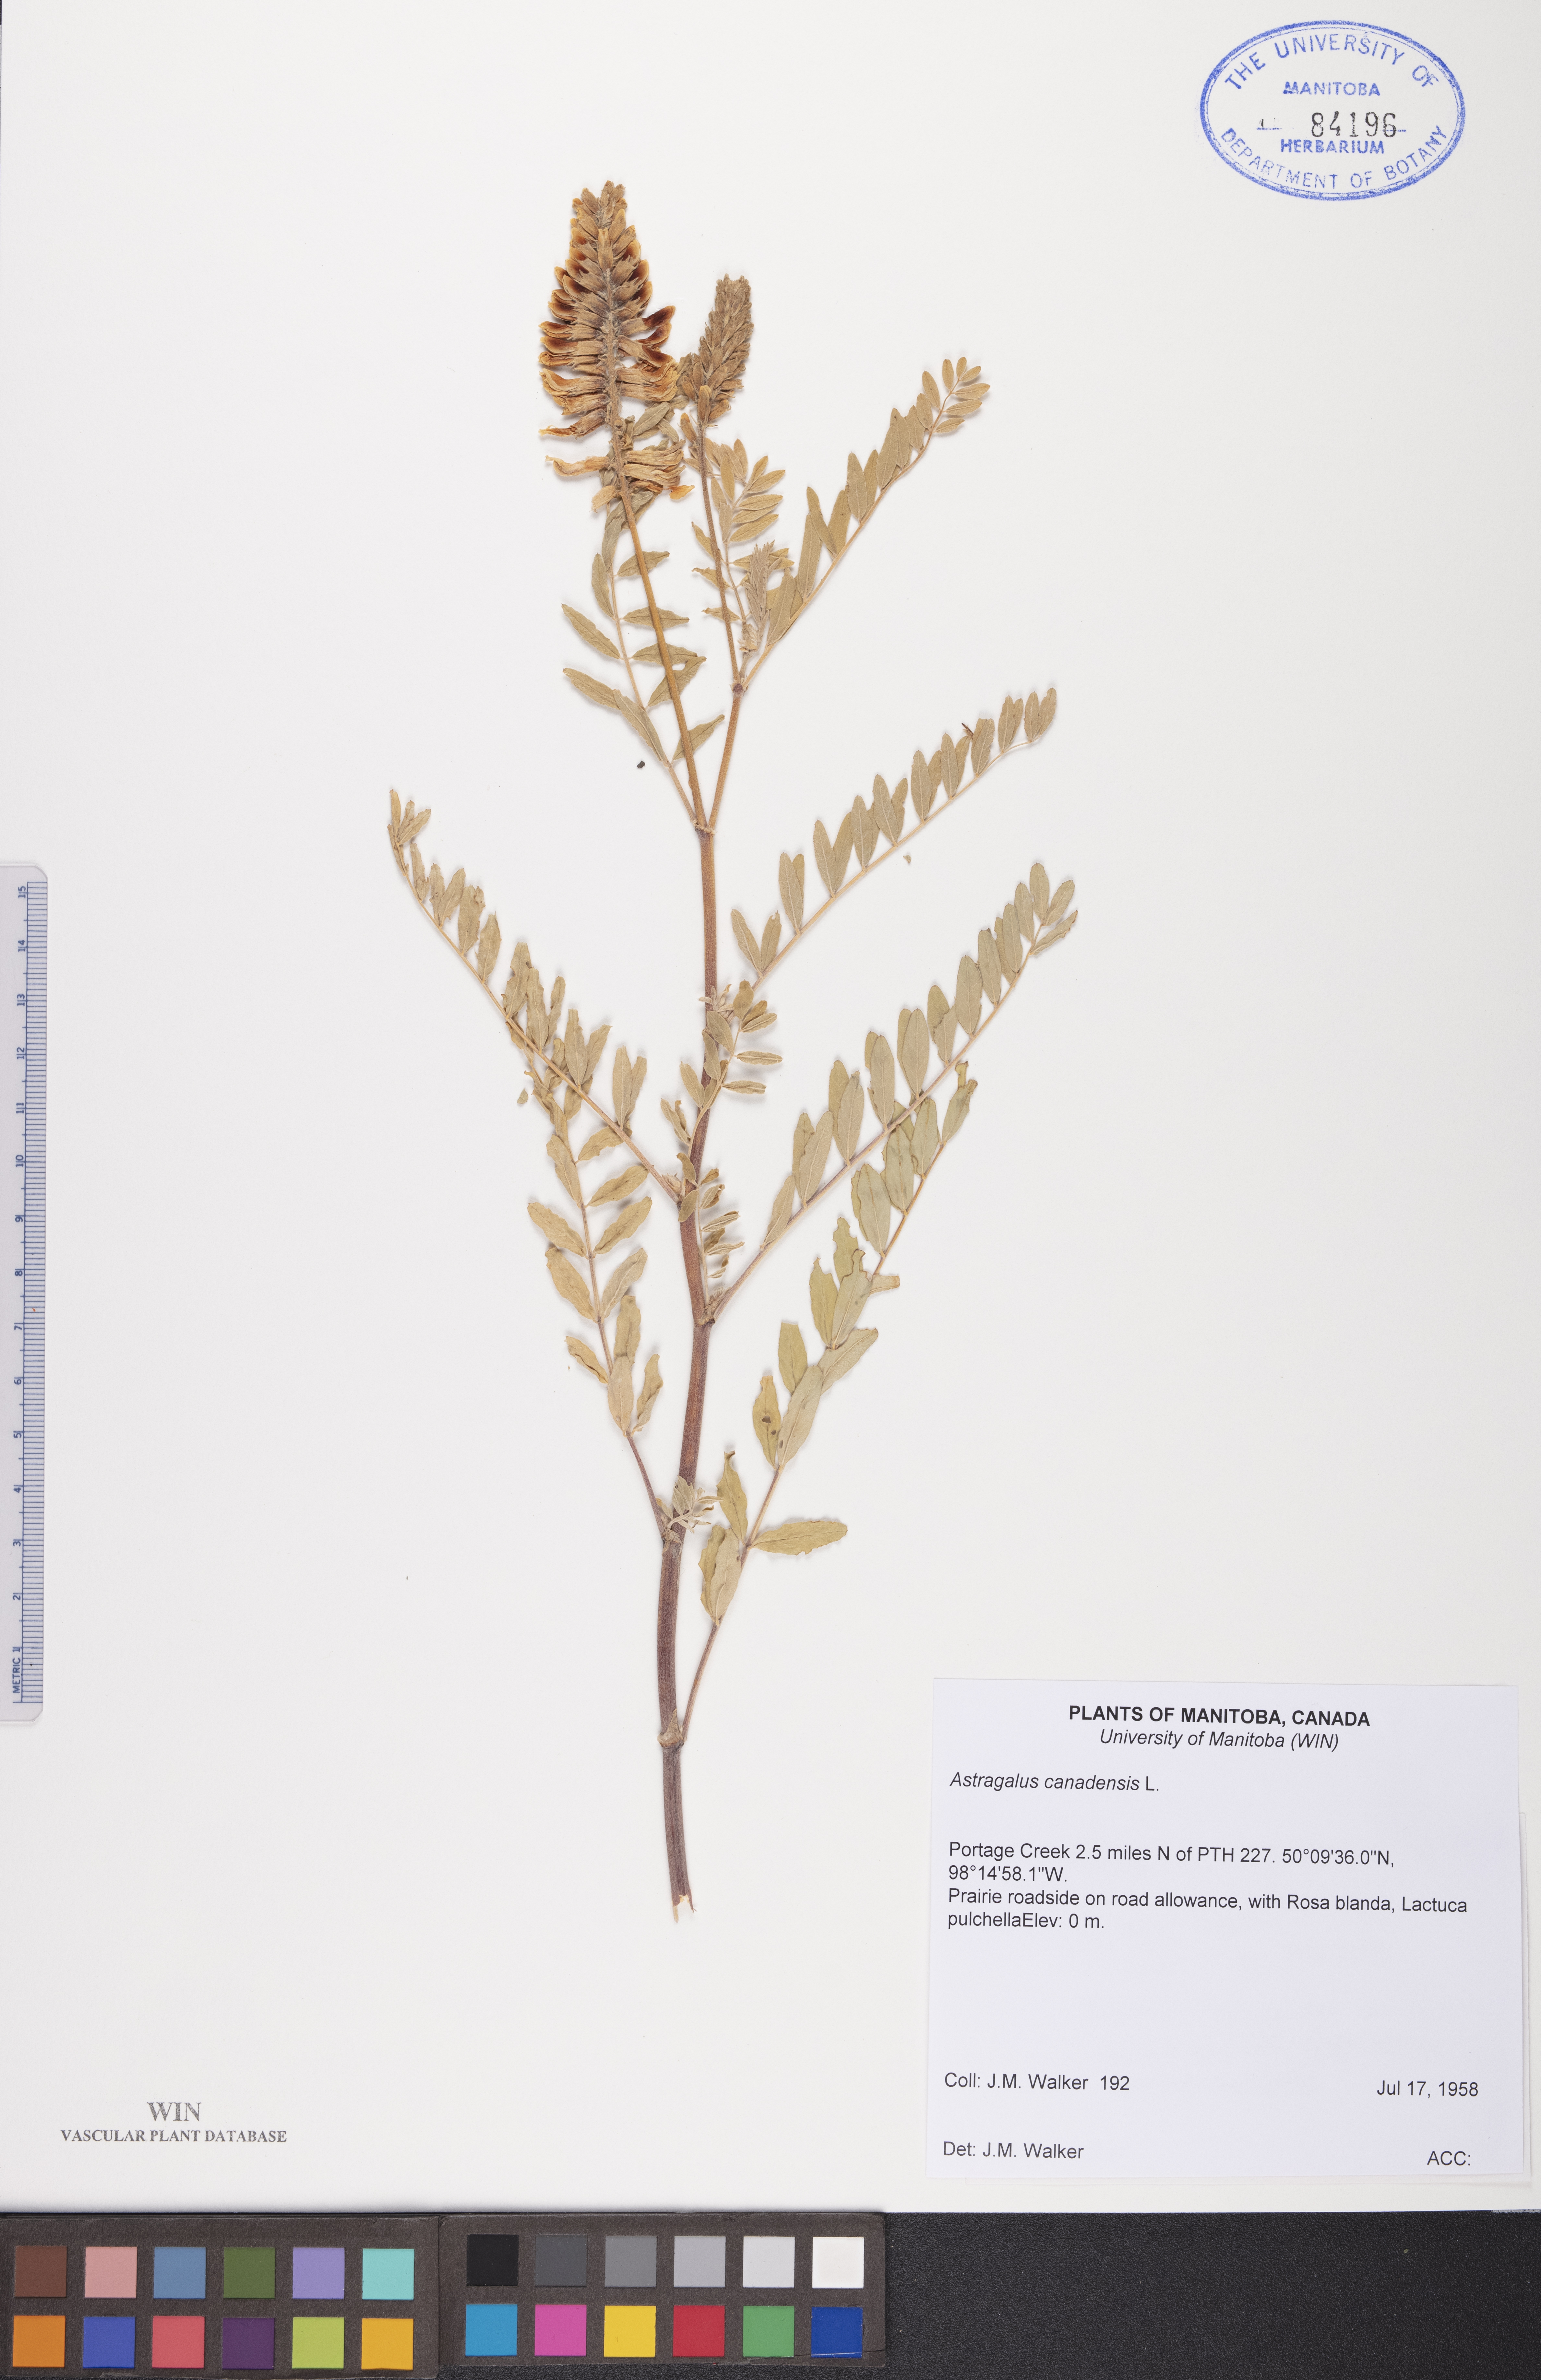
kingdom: Plantae
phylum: Tracheophyta
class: Magnoliopsida
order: Fabales
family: Fabaceae
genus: Astragalus
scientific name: Astragalus canadensis
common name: Canada milk-vetch
